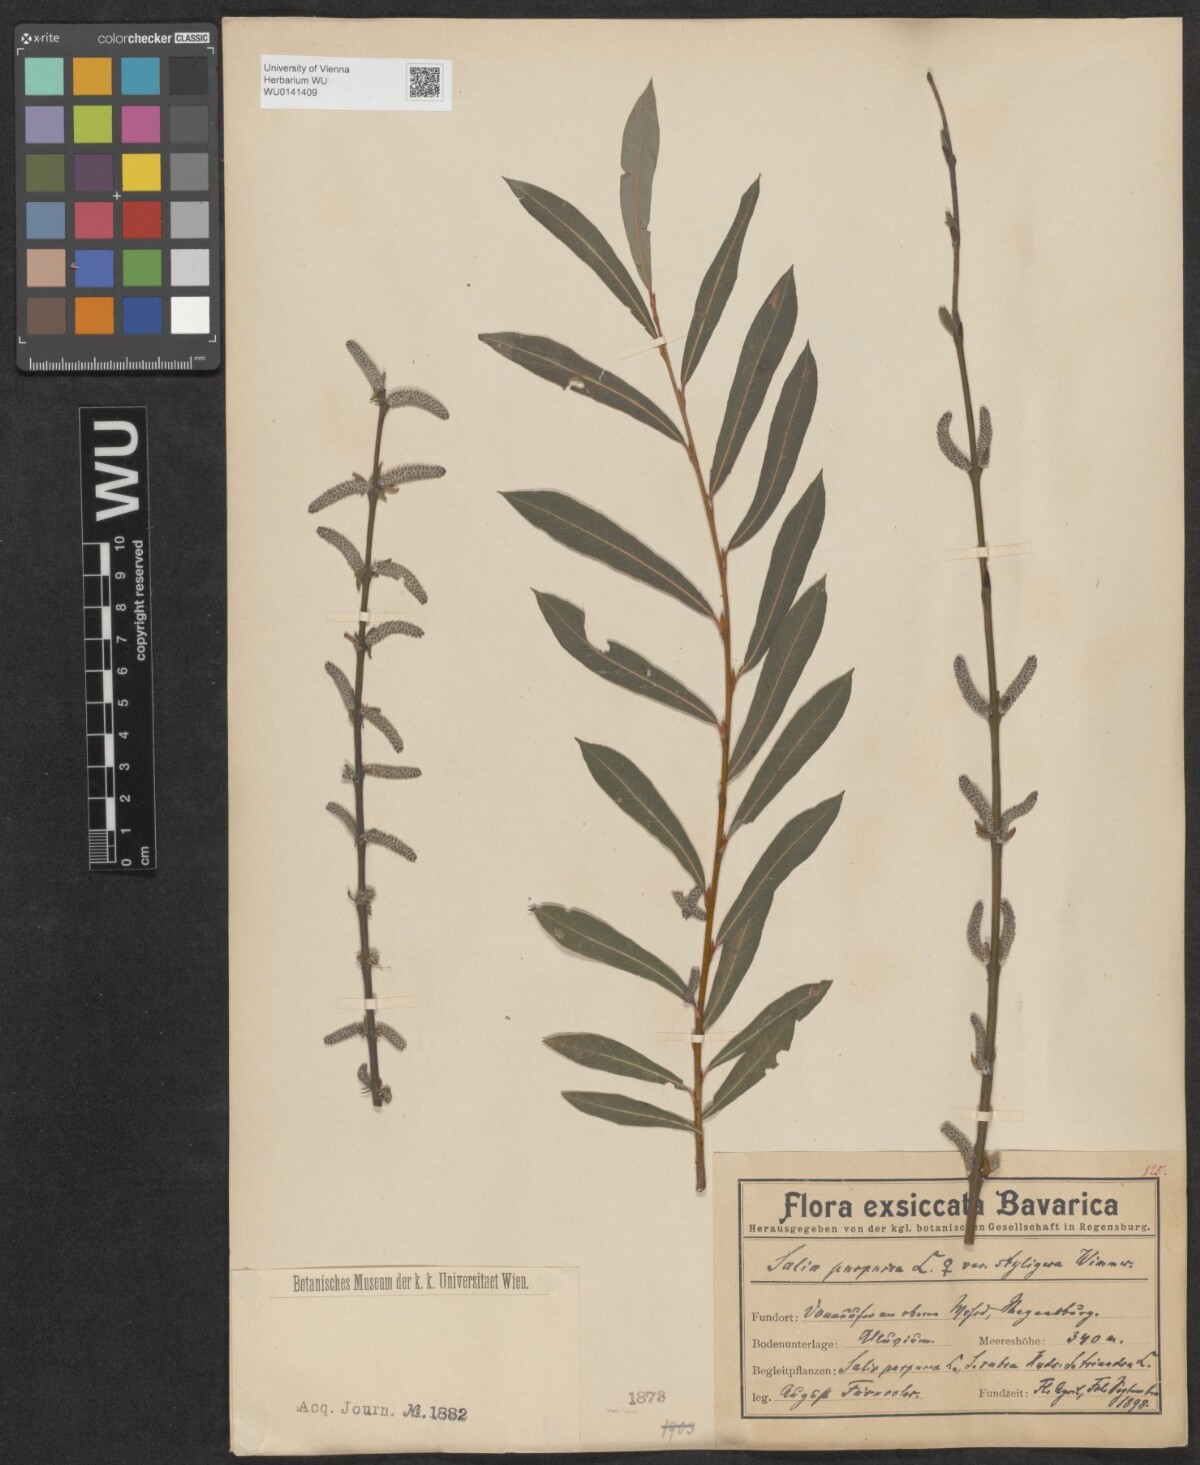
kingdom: Plantae
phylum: Tracheophyta
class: Magnoliopsida
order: Malpighiales
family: Salicaceae
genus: Salix
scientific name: Salix purpurea
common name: Purple willow
